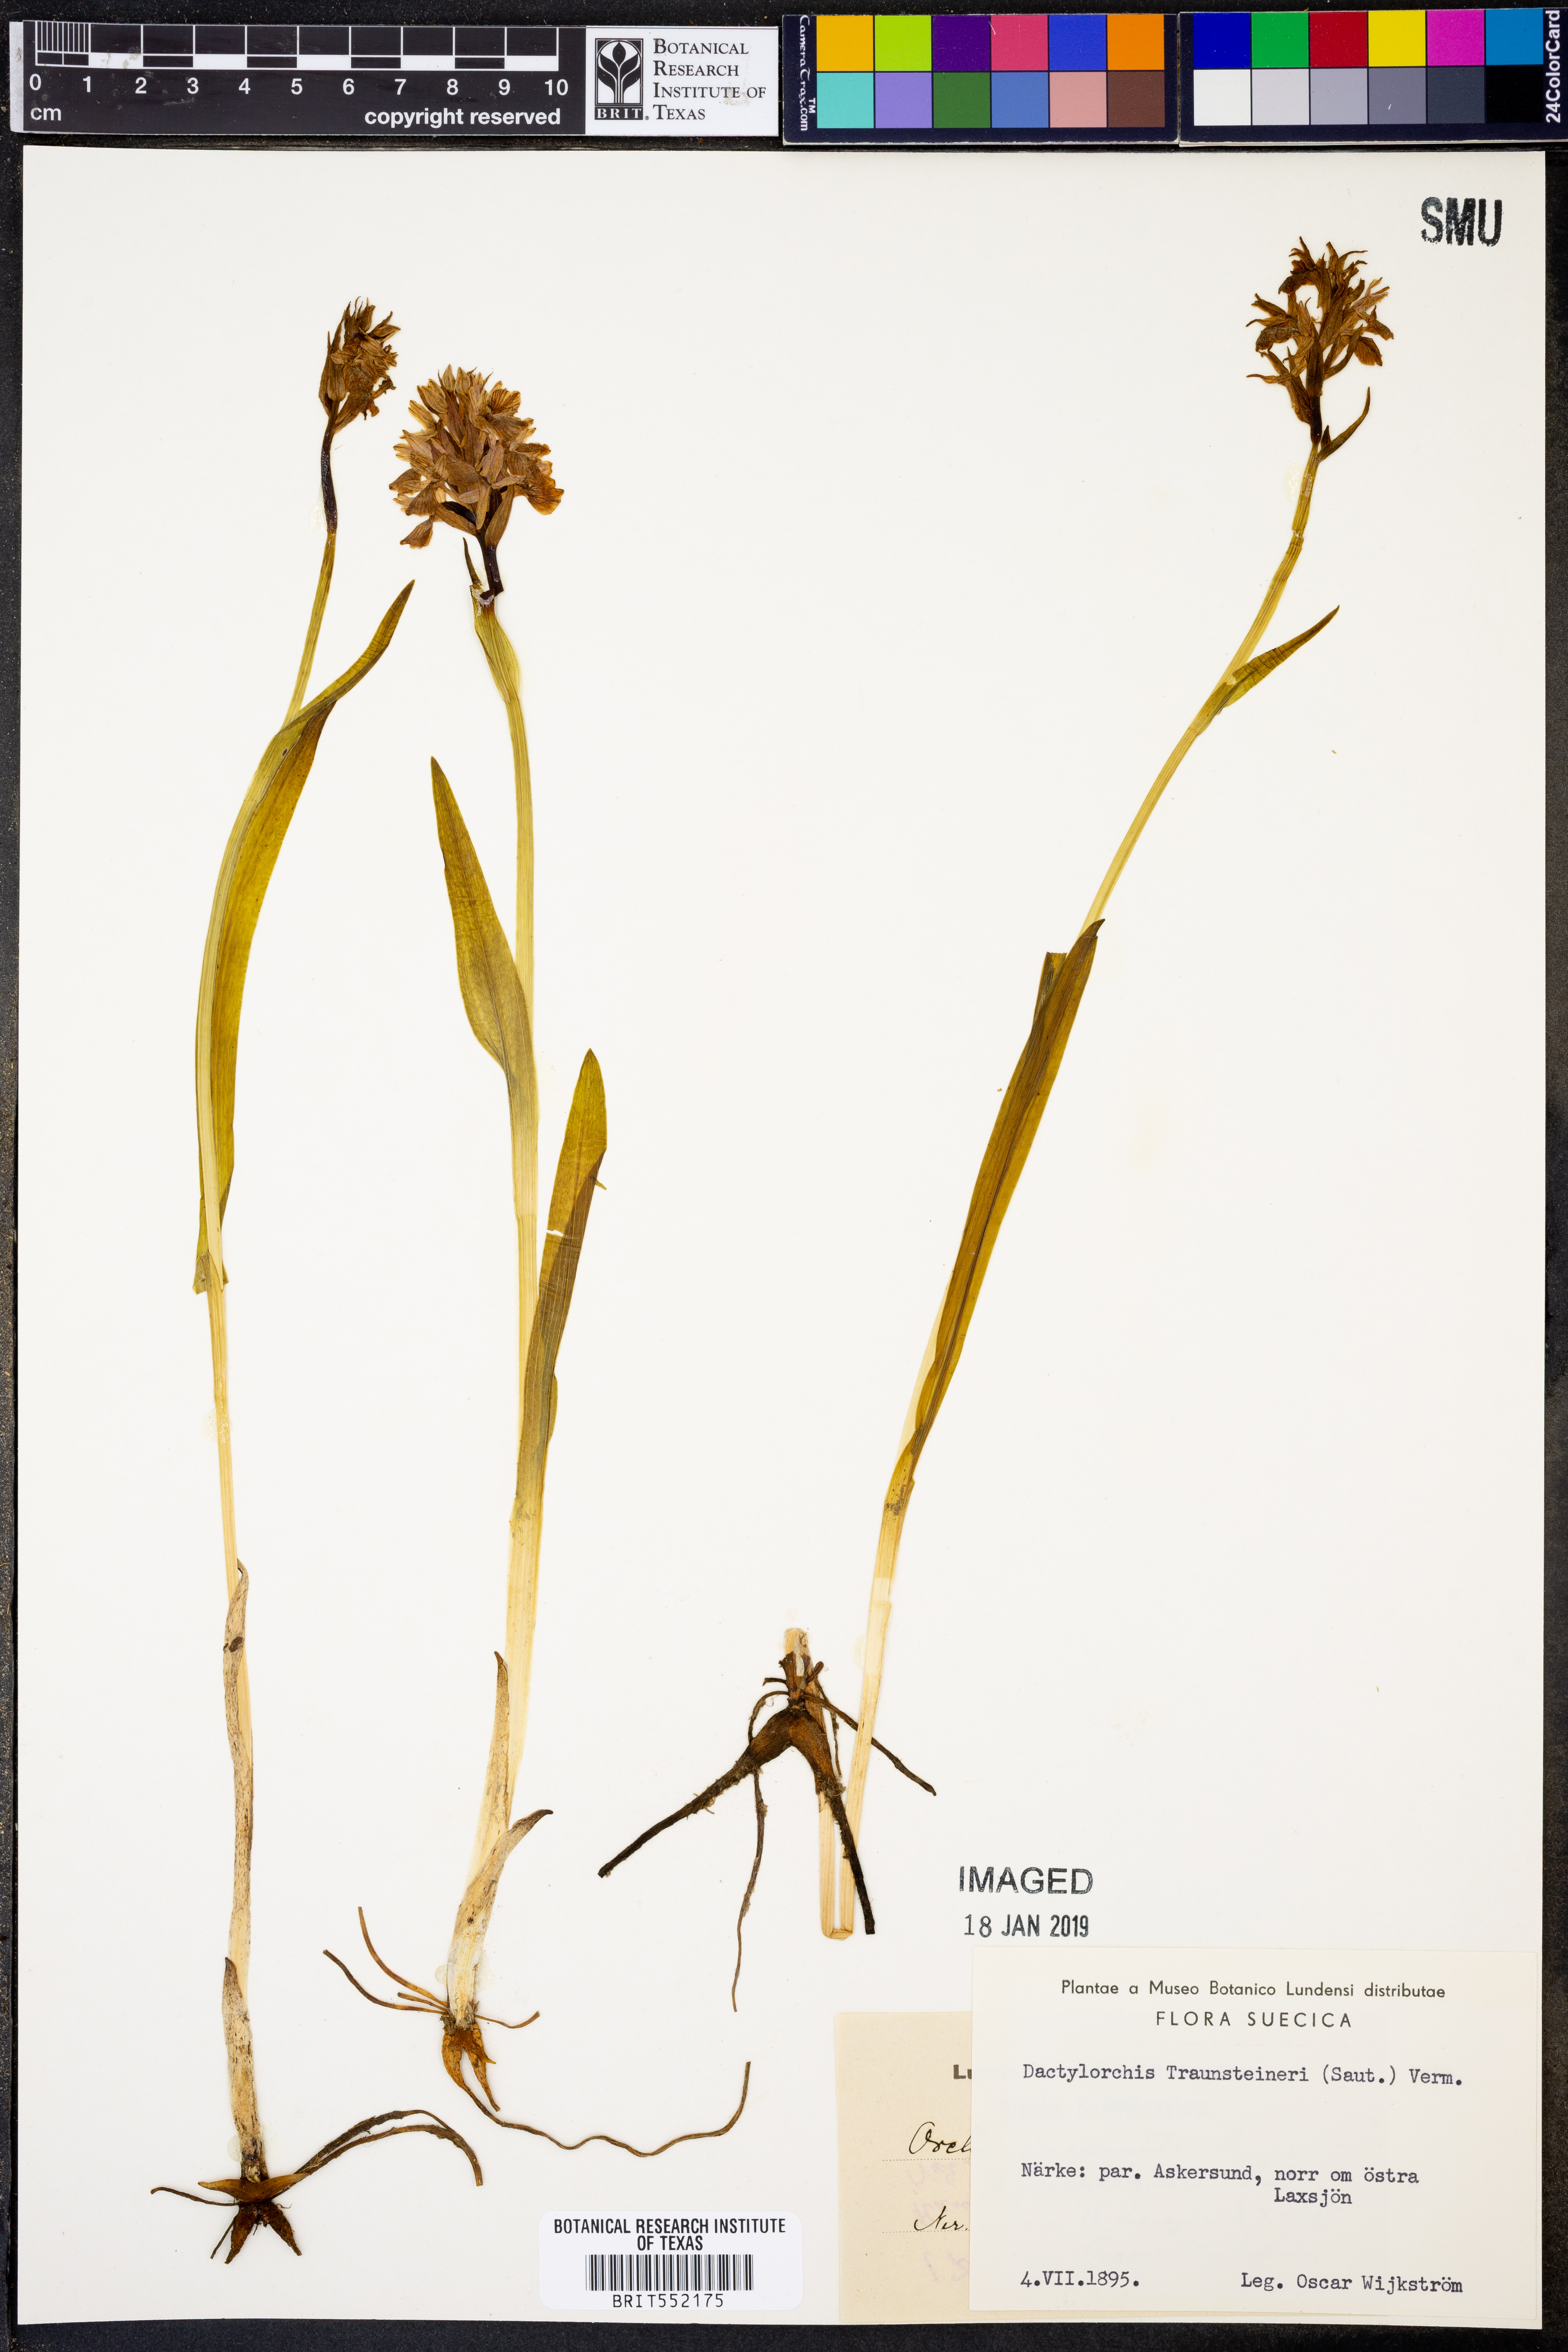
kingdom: Plantae
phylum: Tracheophyta
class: Liliopsida
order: Asparagales
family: Orchidaceae
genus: Dactylorhiza
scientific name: Dactylorhiza majalis
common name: Marsh orchid
